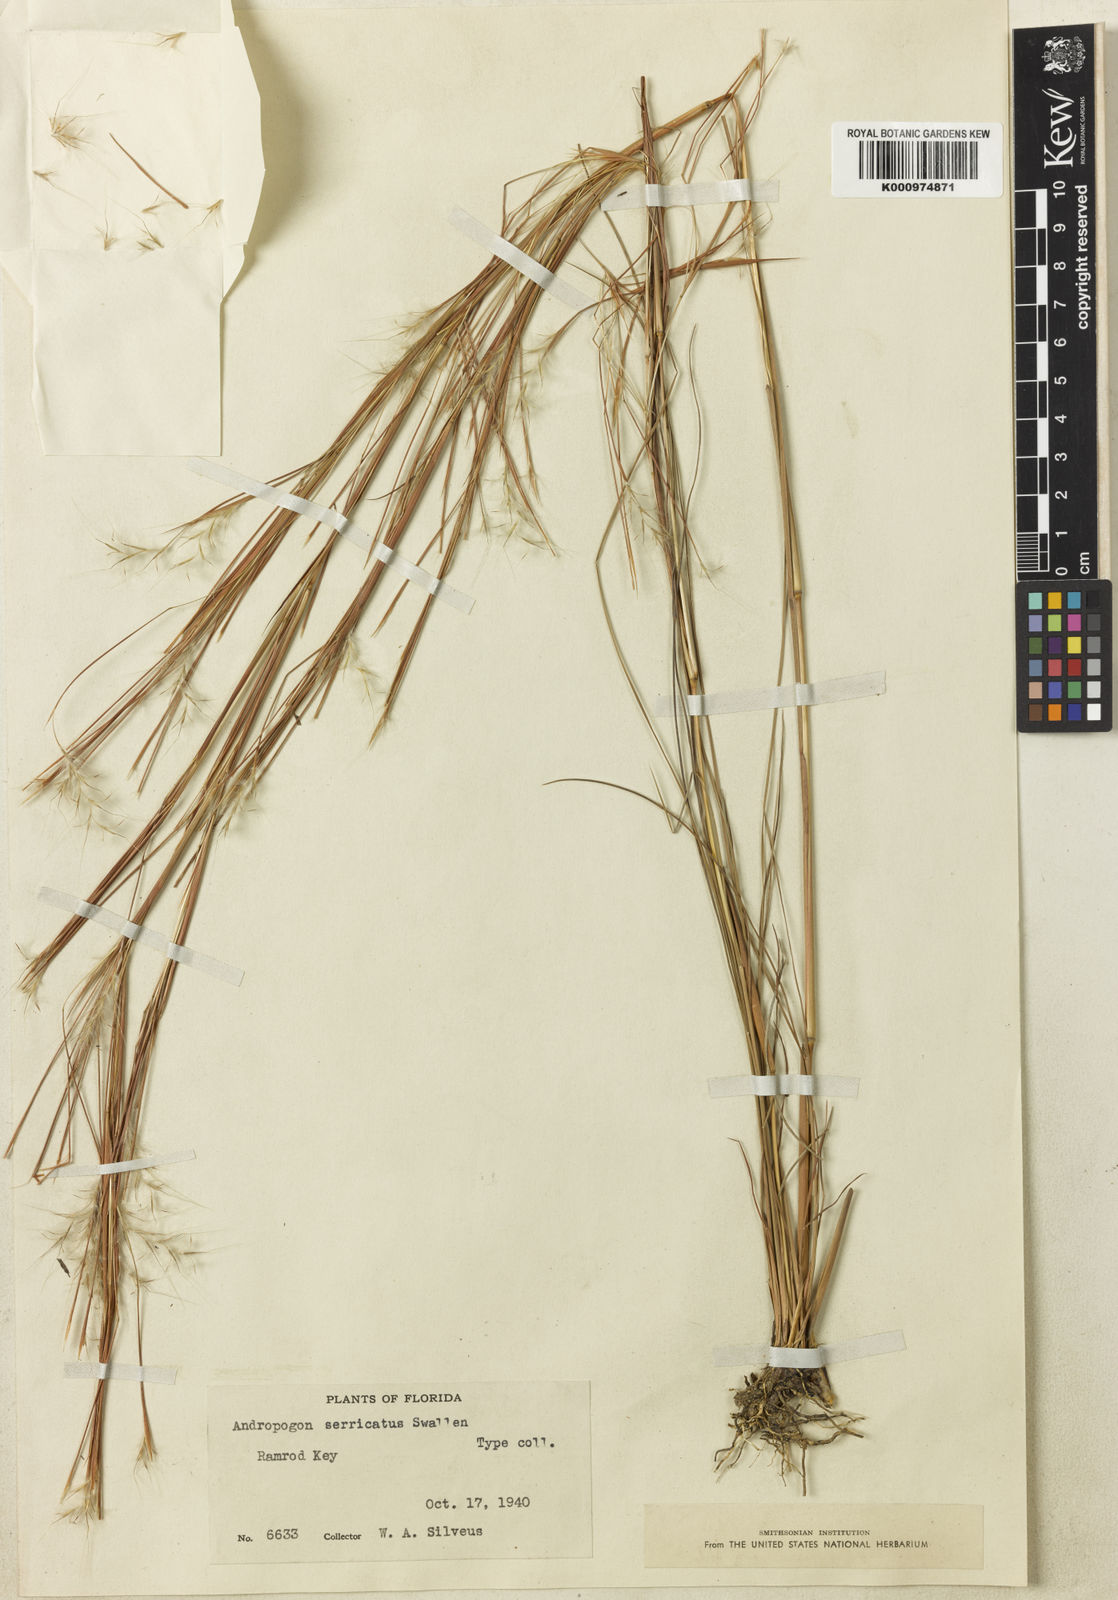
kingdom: Plantae
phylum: Tracheophyta
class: Liliopsida
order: Poales
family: Poaceae
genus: Schizachyrium
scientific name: Schizachyrium gracile
